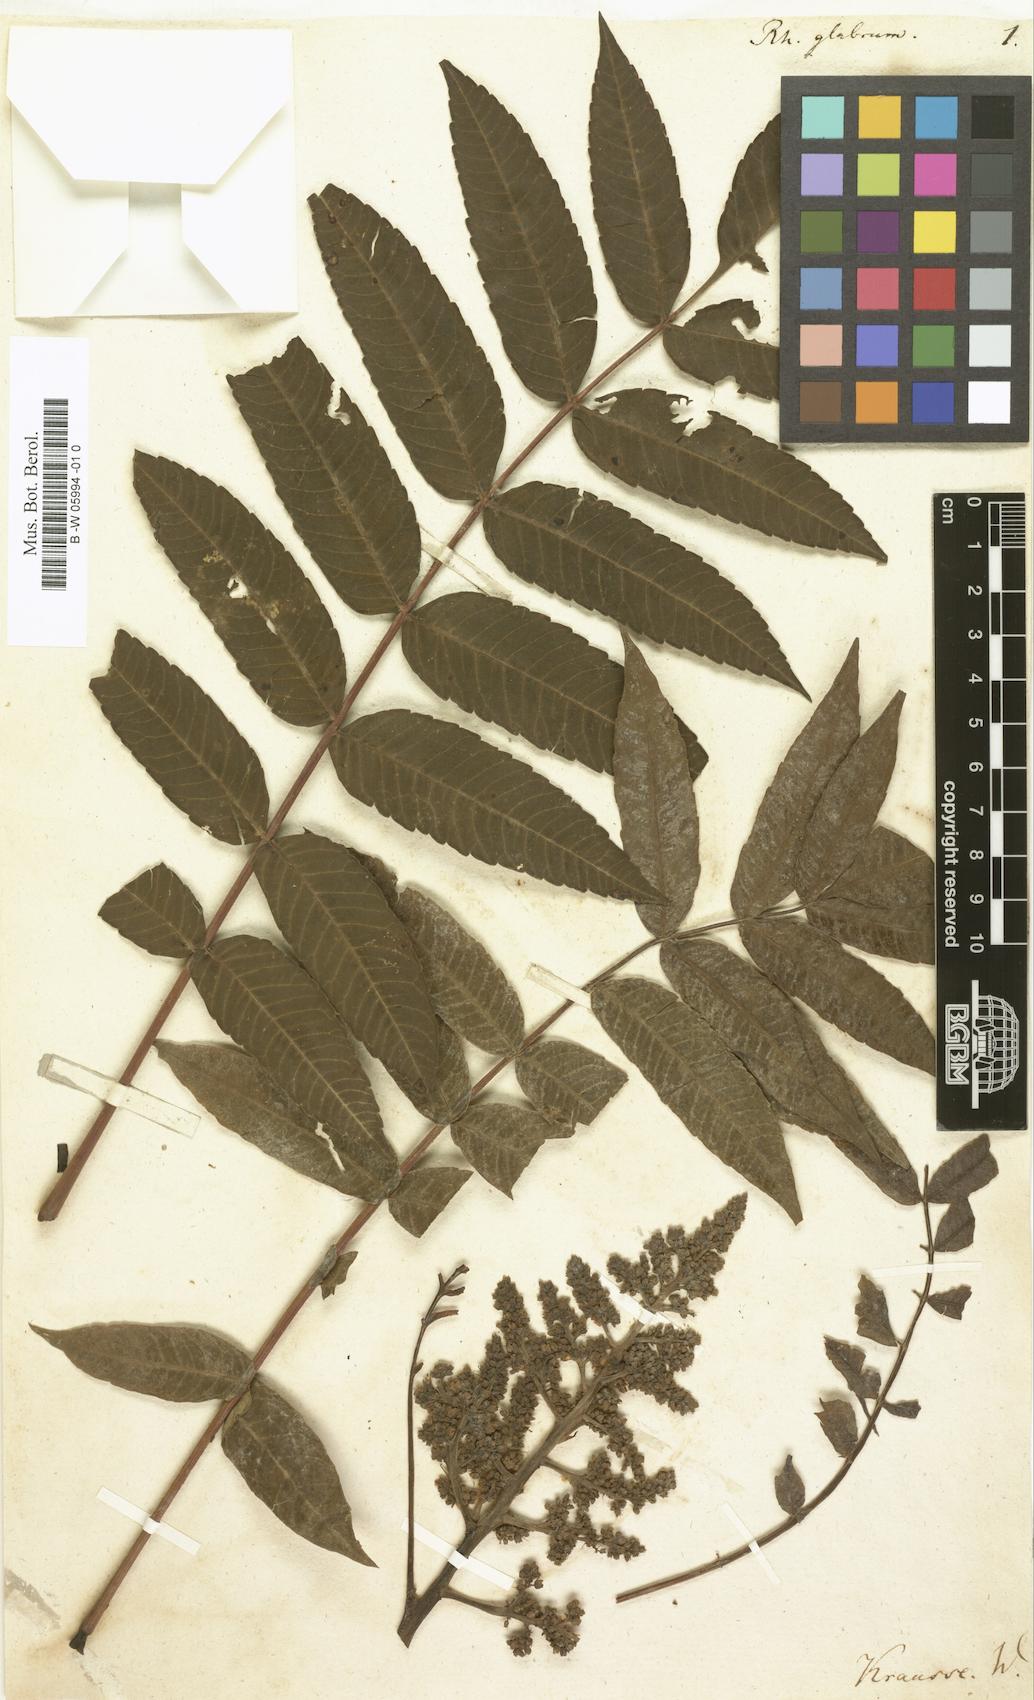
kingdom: Plantae
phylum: Tracheophyta
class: Magnoliopsida
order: Sapindales
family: Anacardiaceae
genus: Rhus
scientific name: Rhus glabra
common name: Scarlet sumac
